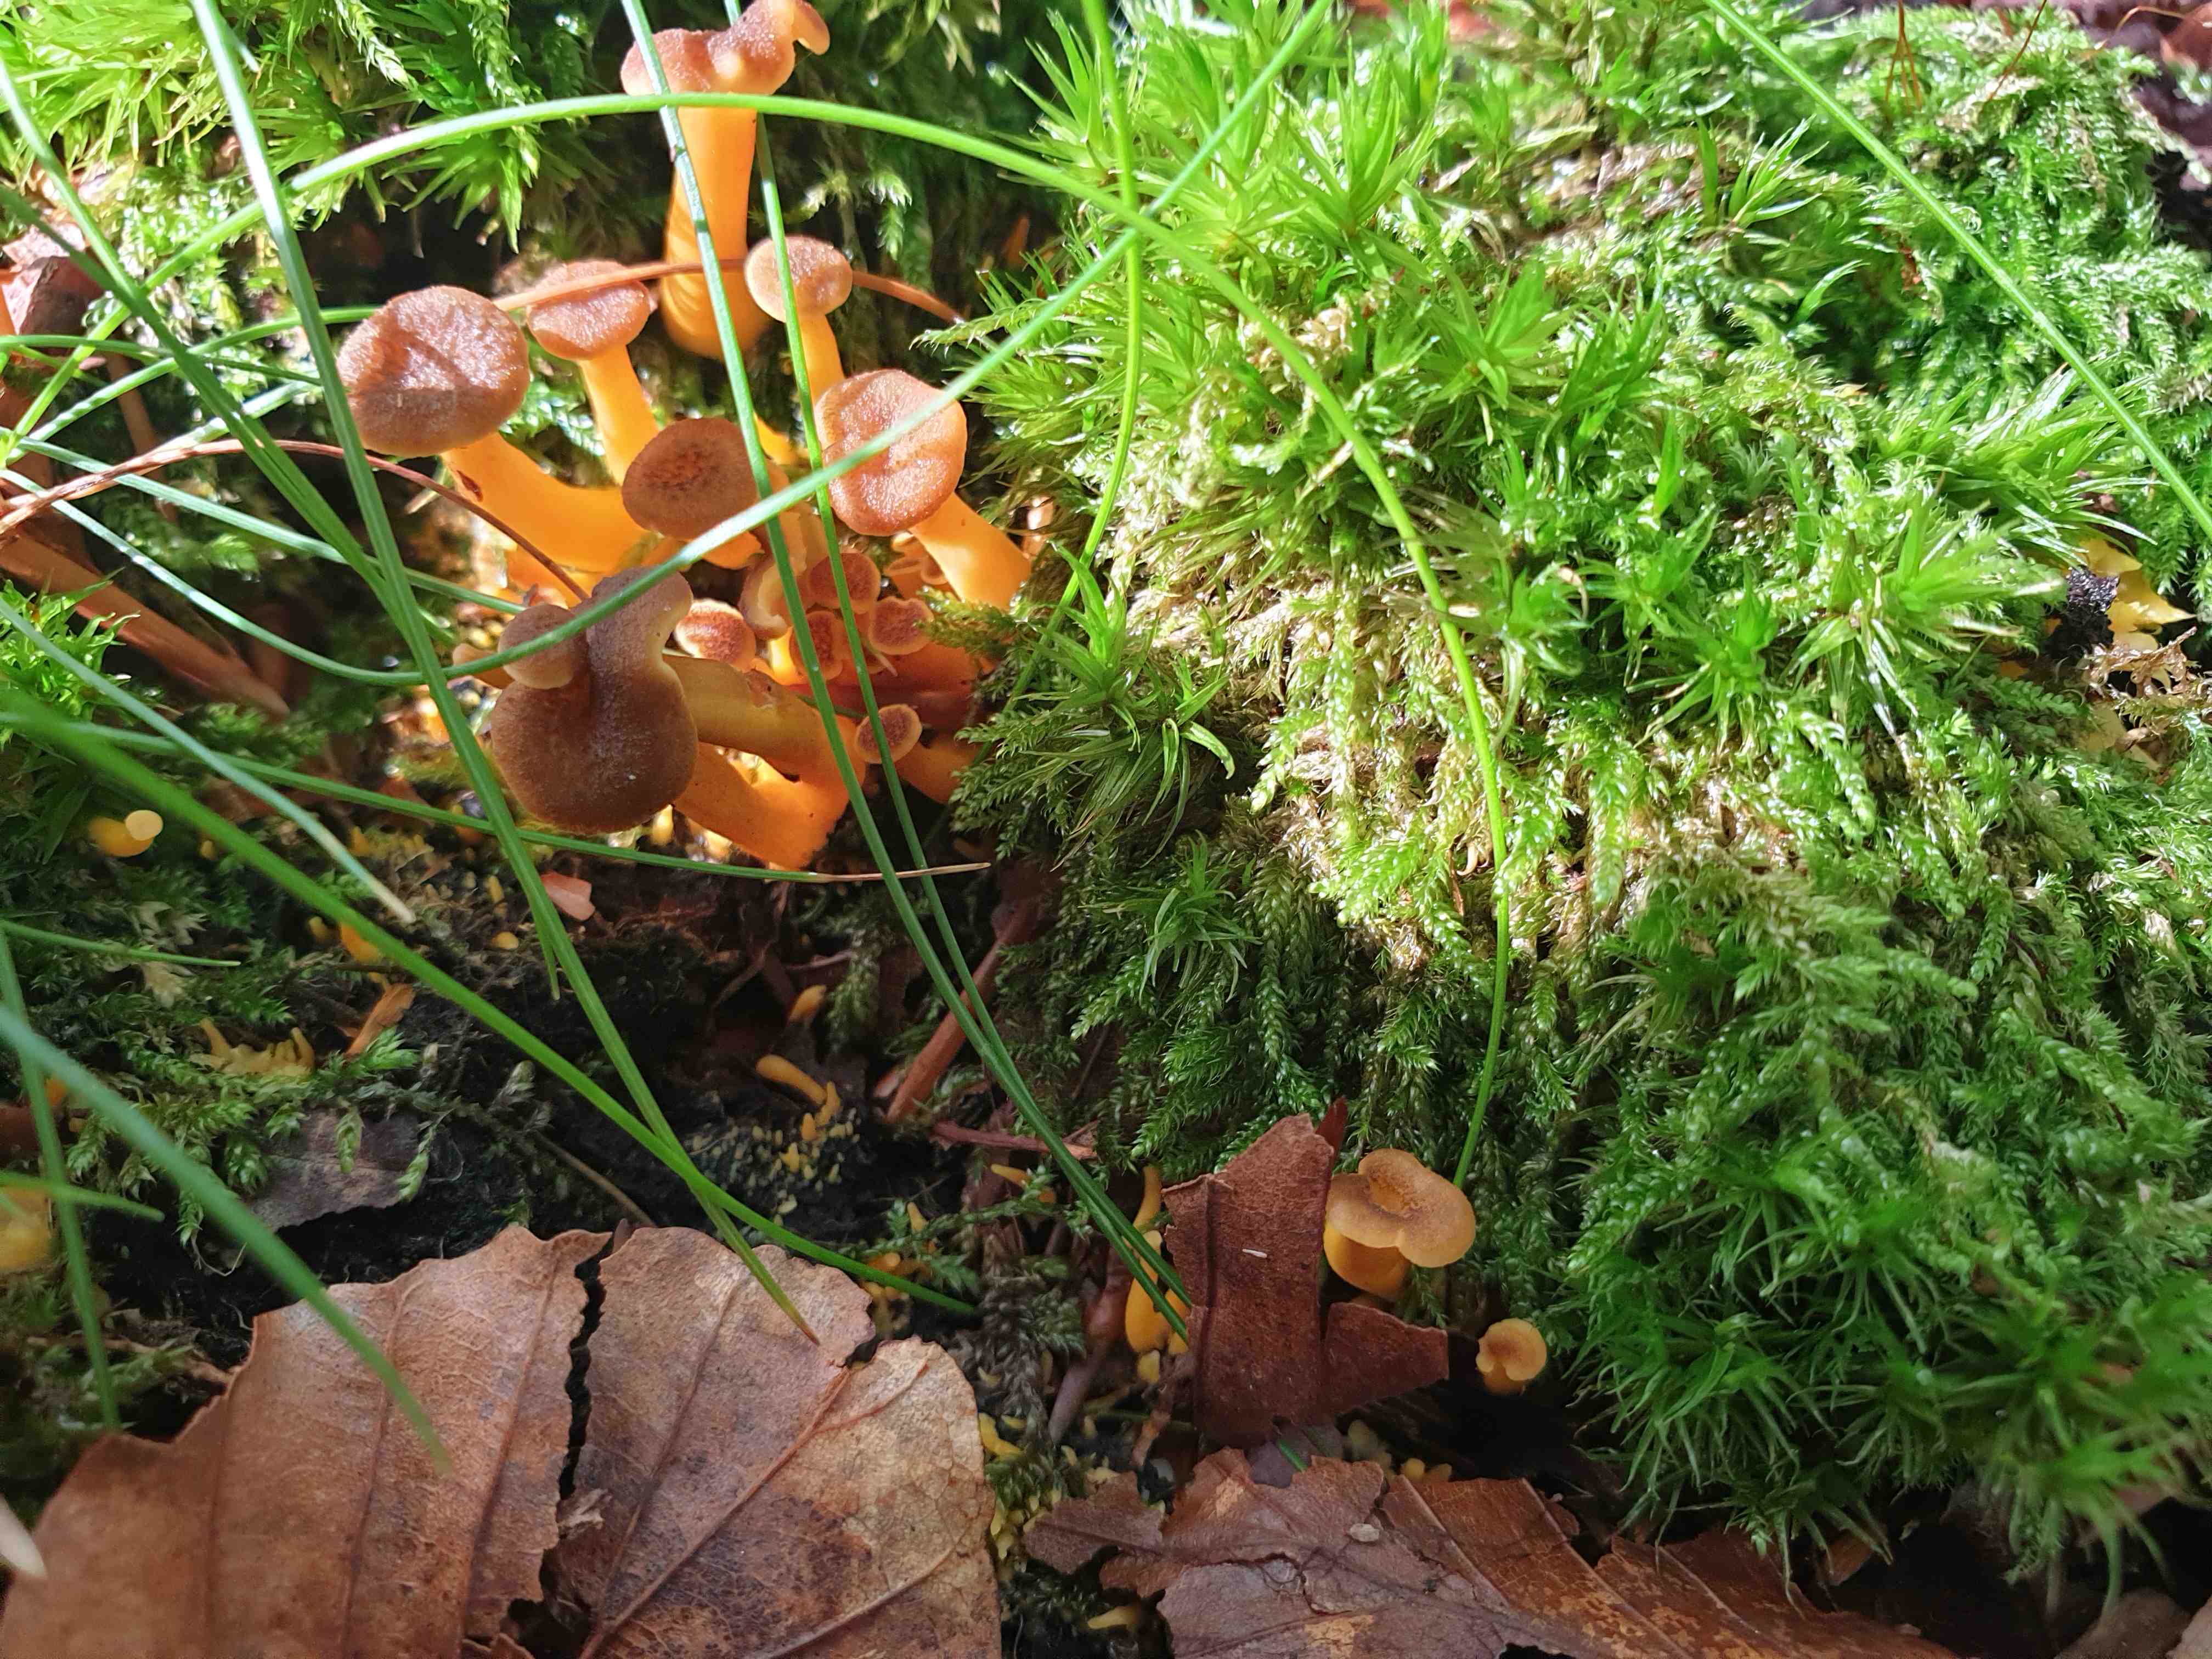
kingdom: Fungi
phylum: Basidiomycota
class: Agaricomycetes
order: Cantharellales
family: Hydnaceae
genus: Craterellus
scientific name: Craterellus tubaeformis
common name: tragt-kantarel
